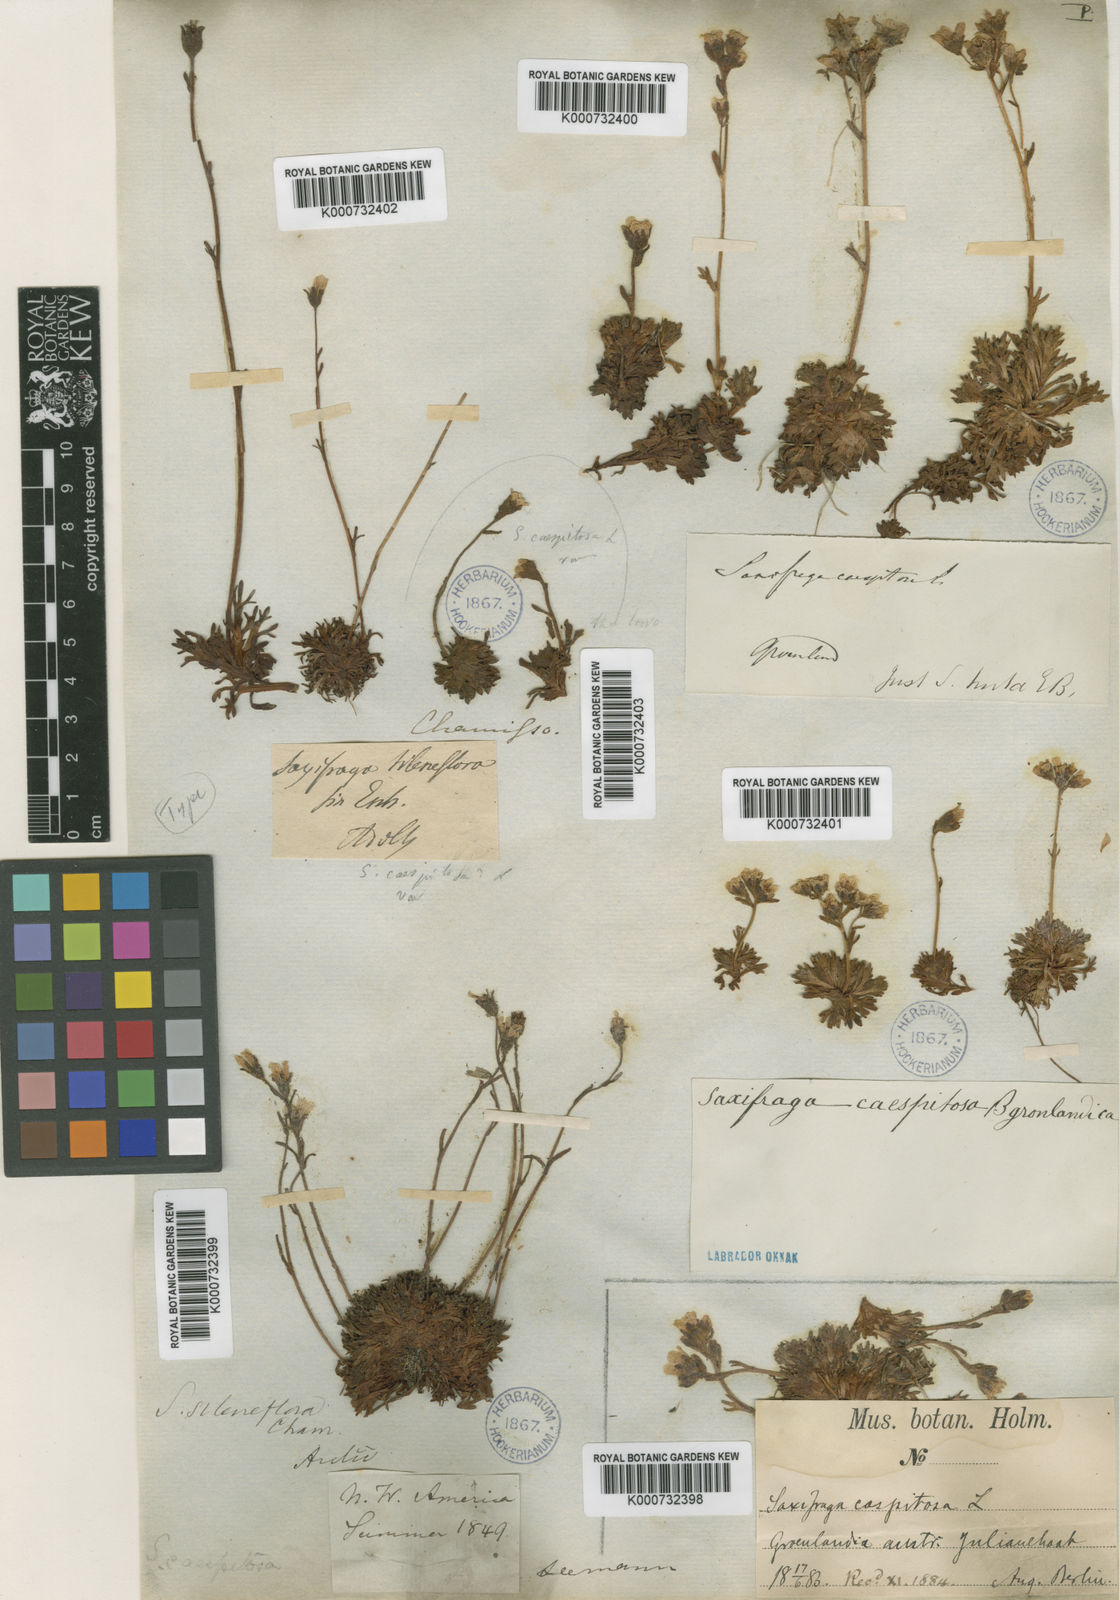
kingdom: Plantae
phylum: Tracheophyta
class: Magnoliopsida
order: Saxifragales
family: Saxifragaceae
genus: Saxifraga
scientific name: Saxifraga cespitosa
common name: Tufted saxifrage
